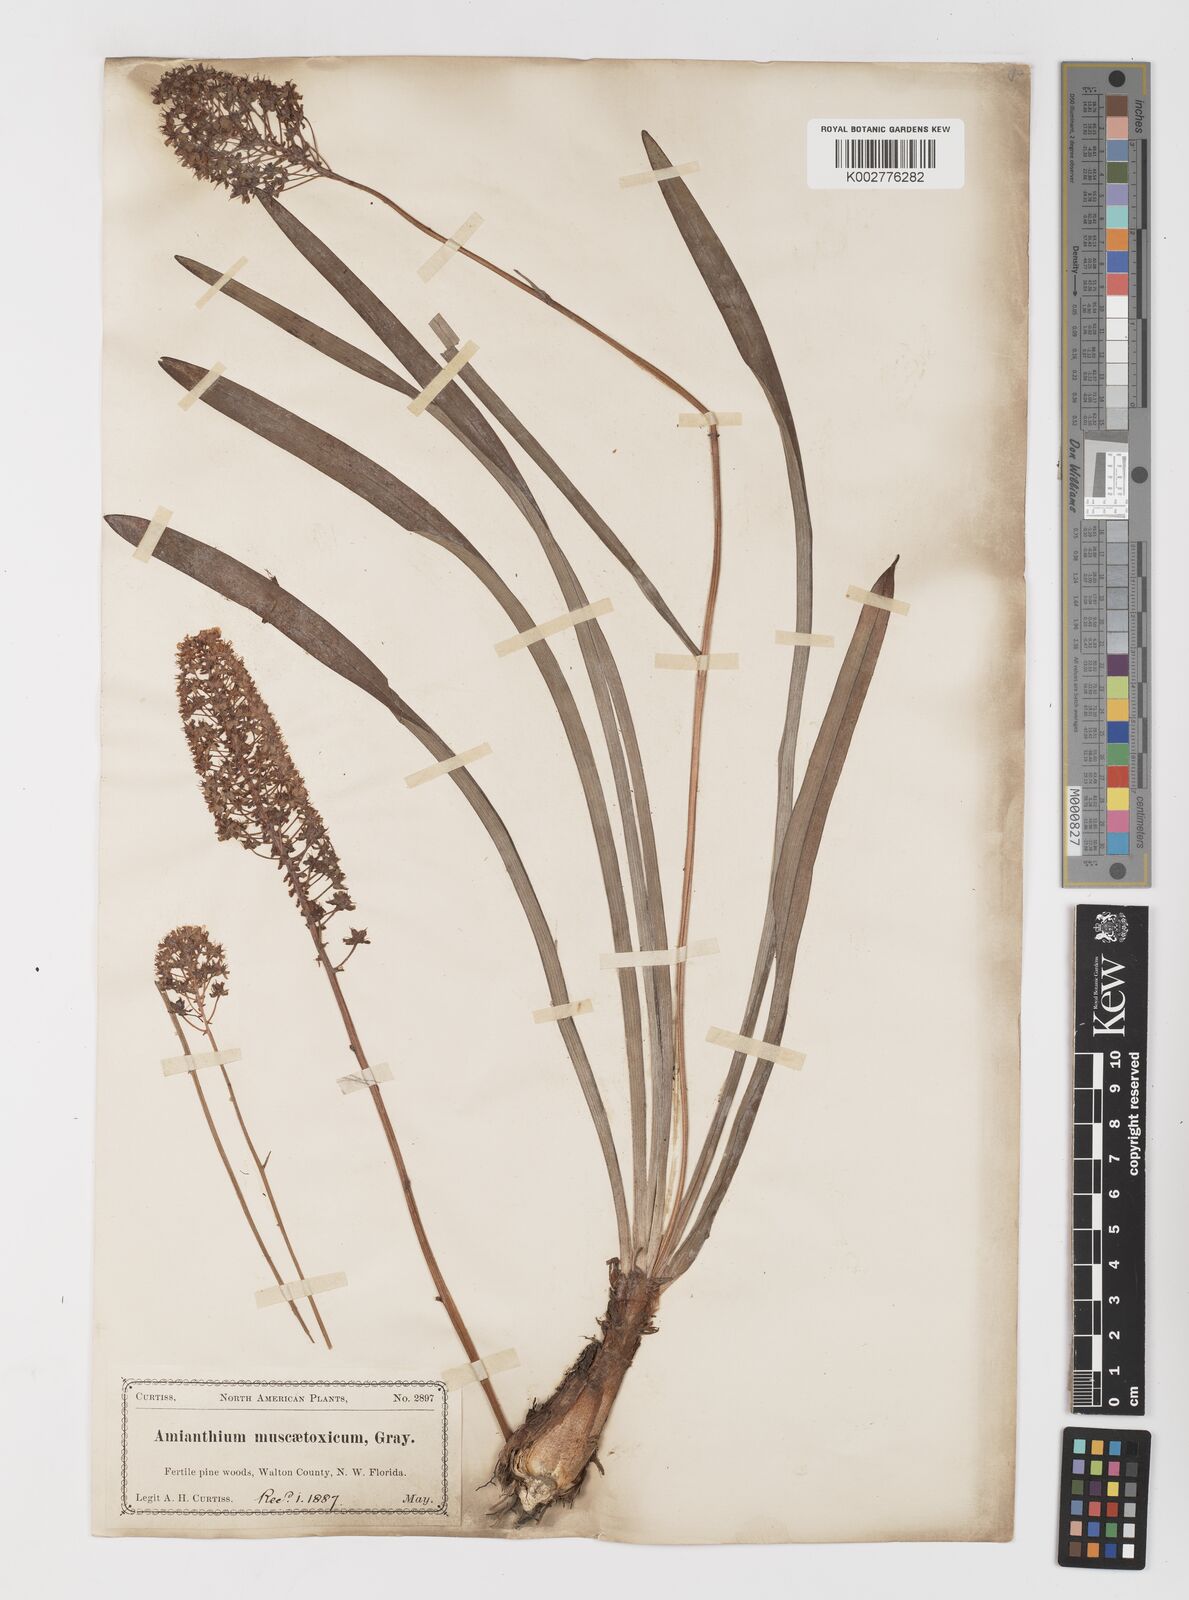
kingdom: Plantae
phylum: Tracheophyta
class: Liliopsida
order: Liliales
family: Melanthiaceae
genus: Amianthium
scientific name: Amianthium muscitoxicum
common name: Fly-poison
